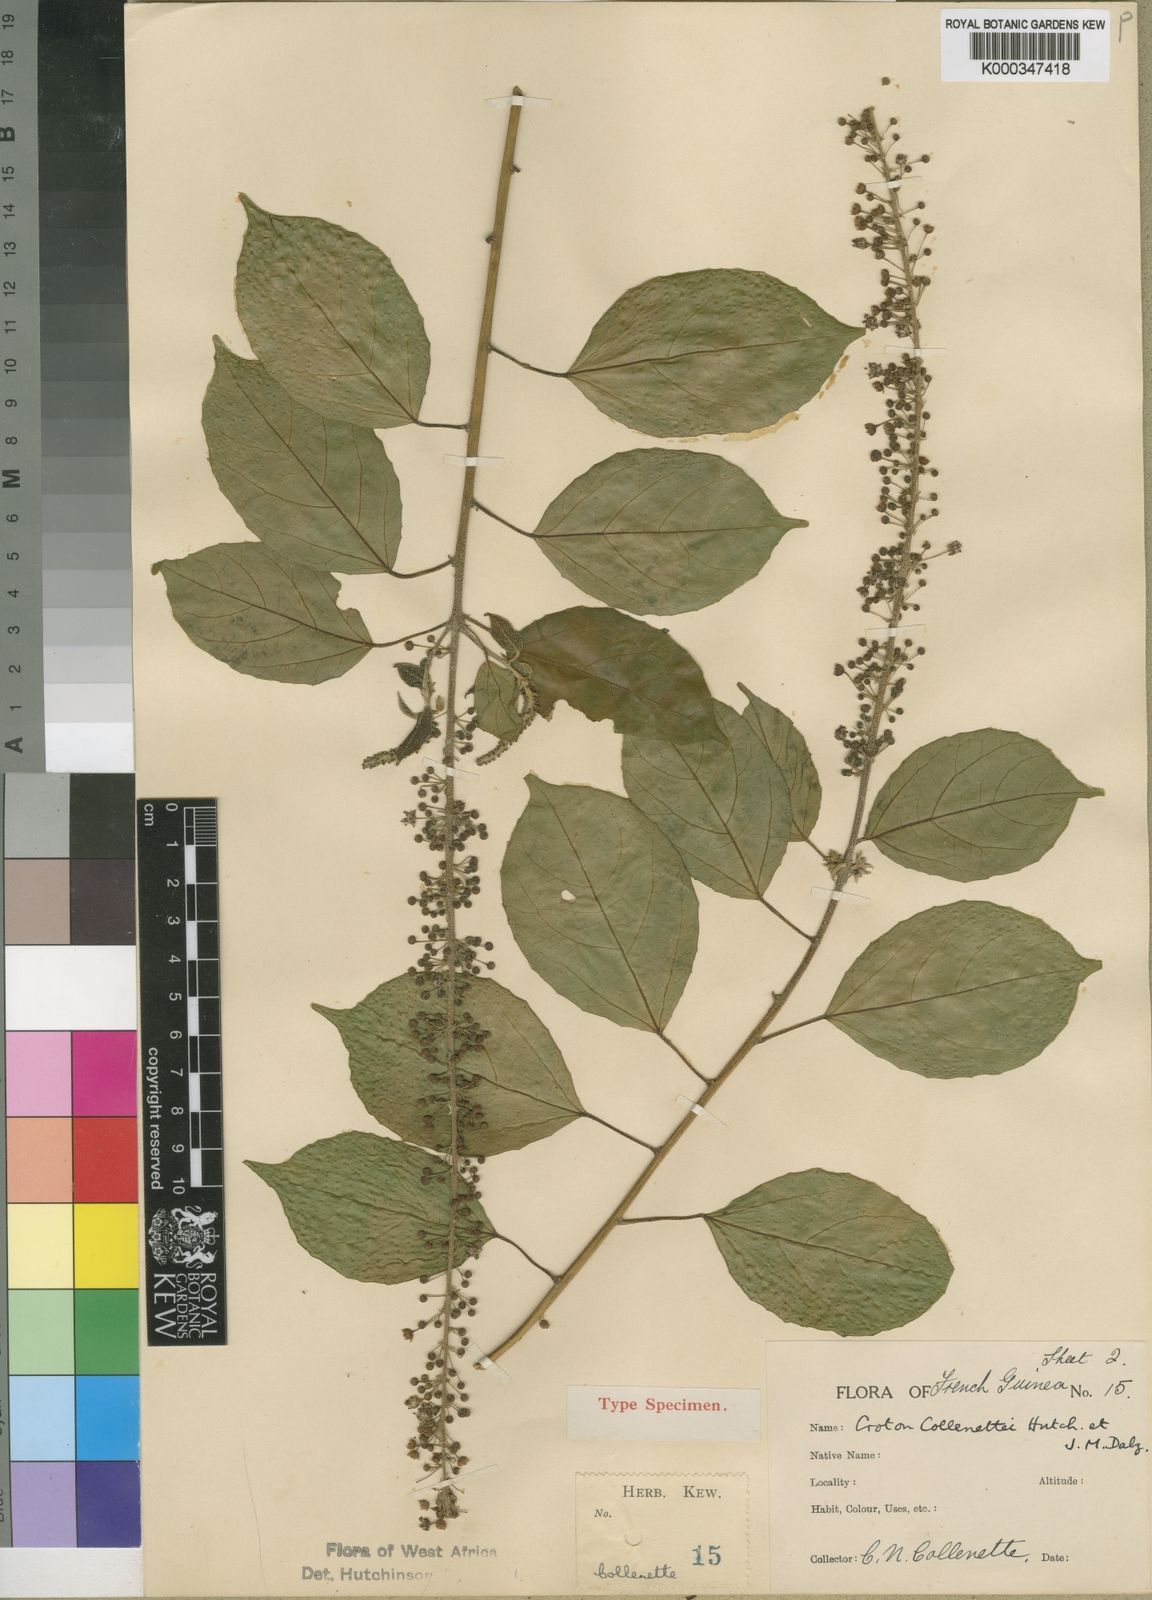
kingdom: Plantae
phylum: Tracheophyta
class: Magnoliopsida
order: Malpighiales
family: Euphorbiaceae
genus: Croton
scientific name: Croton dispar
